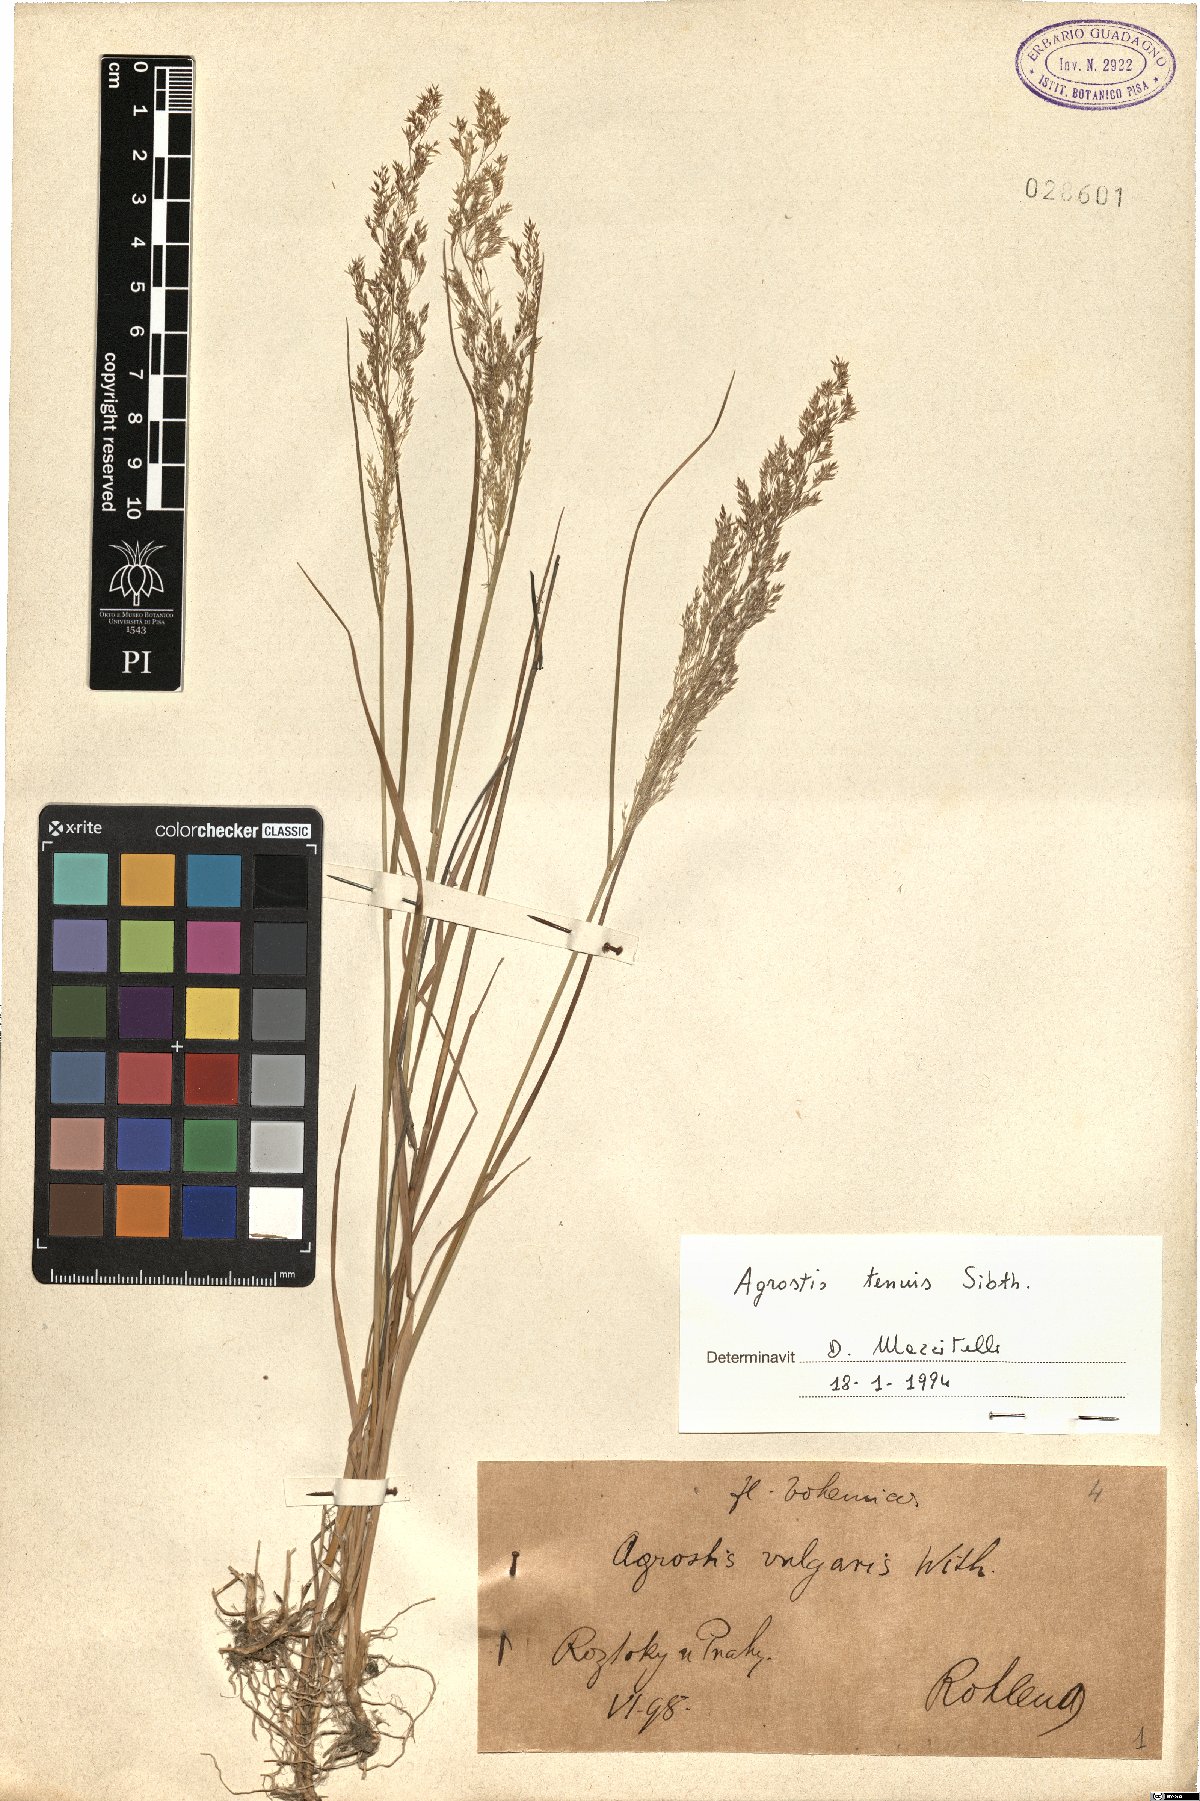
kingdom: Plantae
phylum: Tracheophyta
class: Liliopsida
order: Poales
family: Poaceae
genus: Agrostis
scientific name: Agrostis capillaris
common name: Colonial bentgrass
